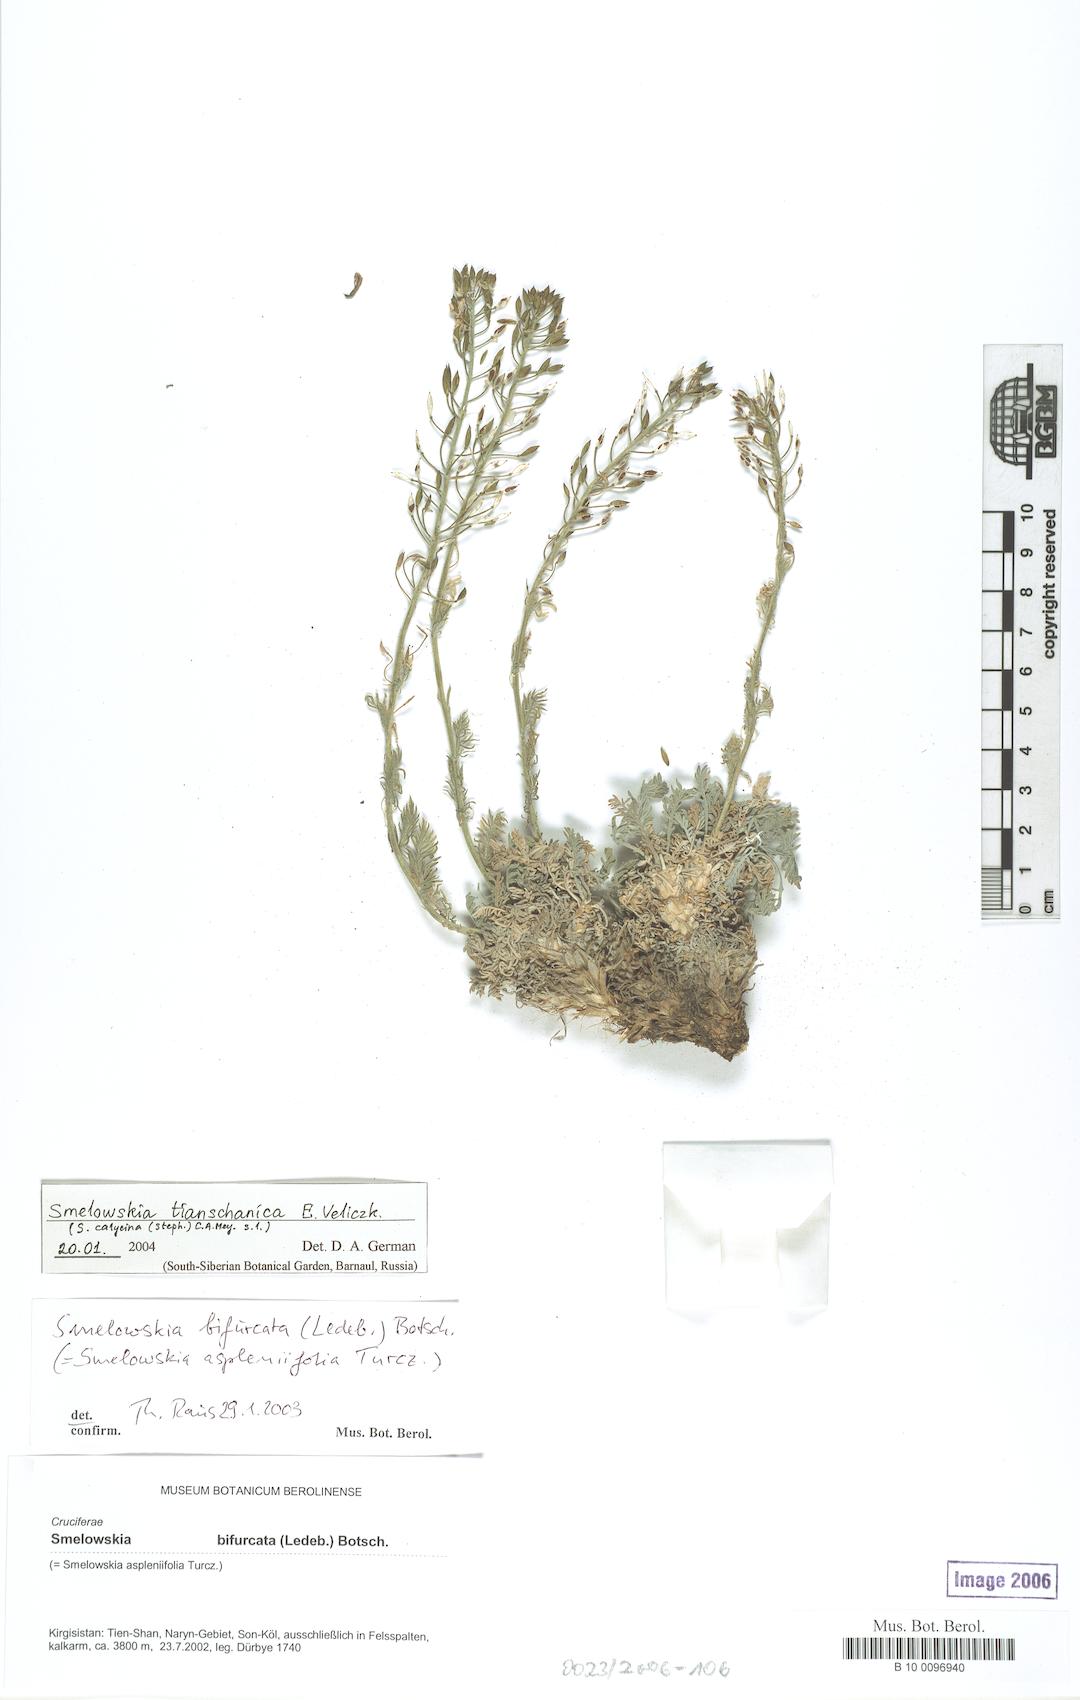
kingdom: Plantae
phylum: Tracheophyta
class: Magnoliopsida
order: Brassicales
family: Brassicaceae
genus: Smelowskia
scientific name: Smelowskia calycina
